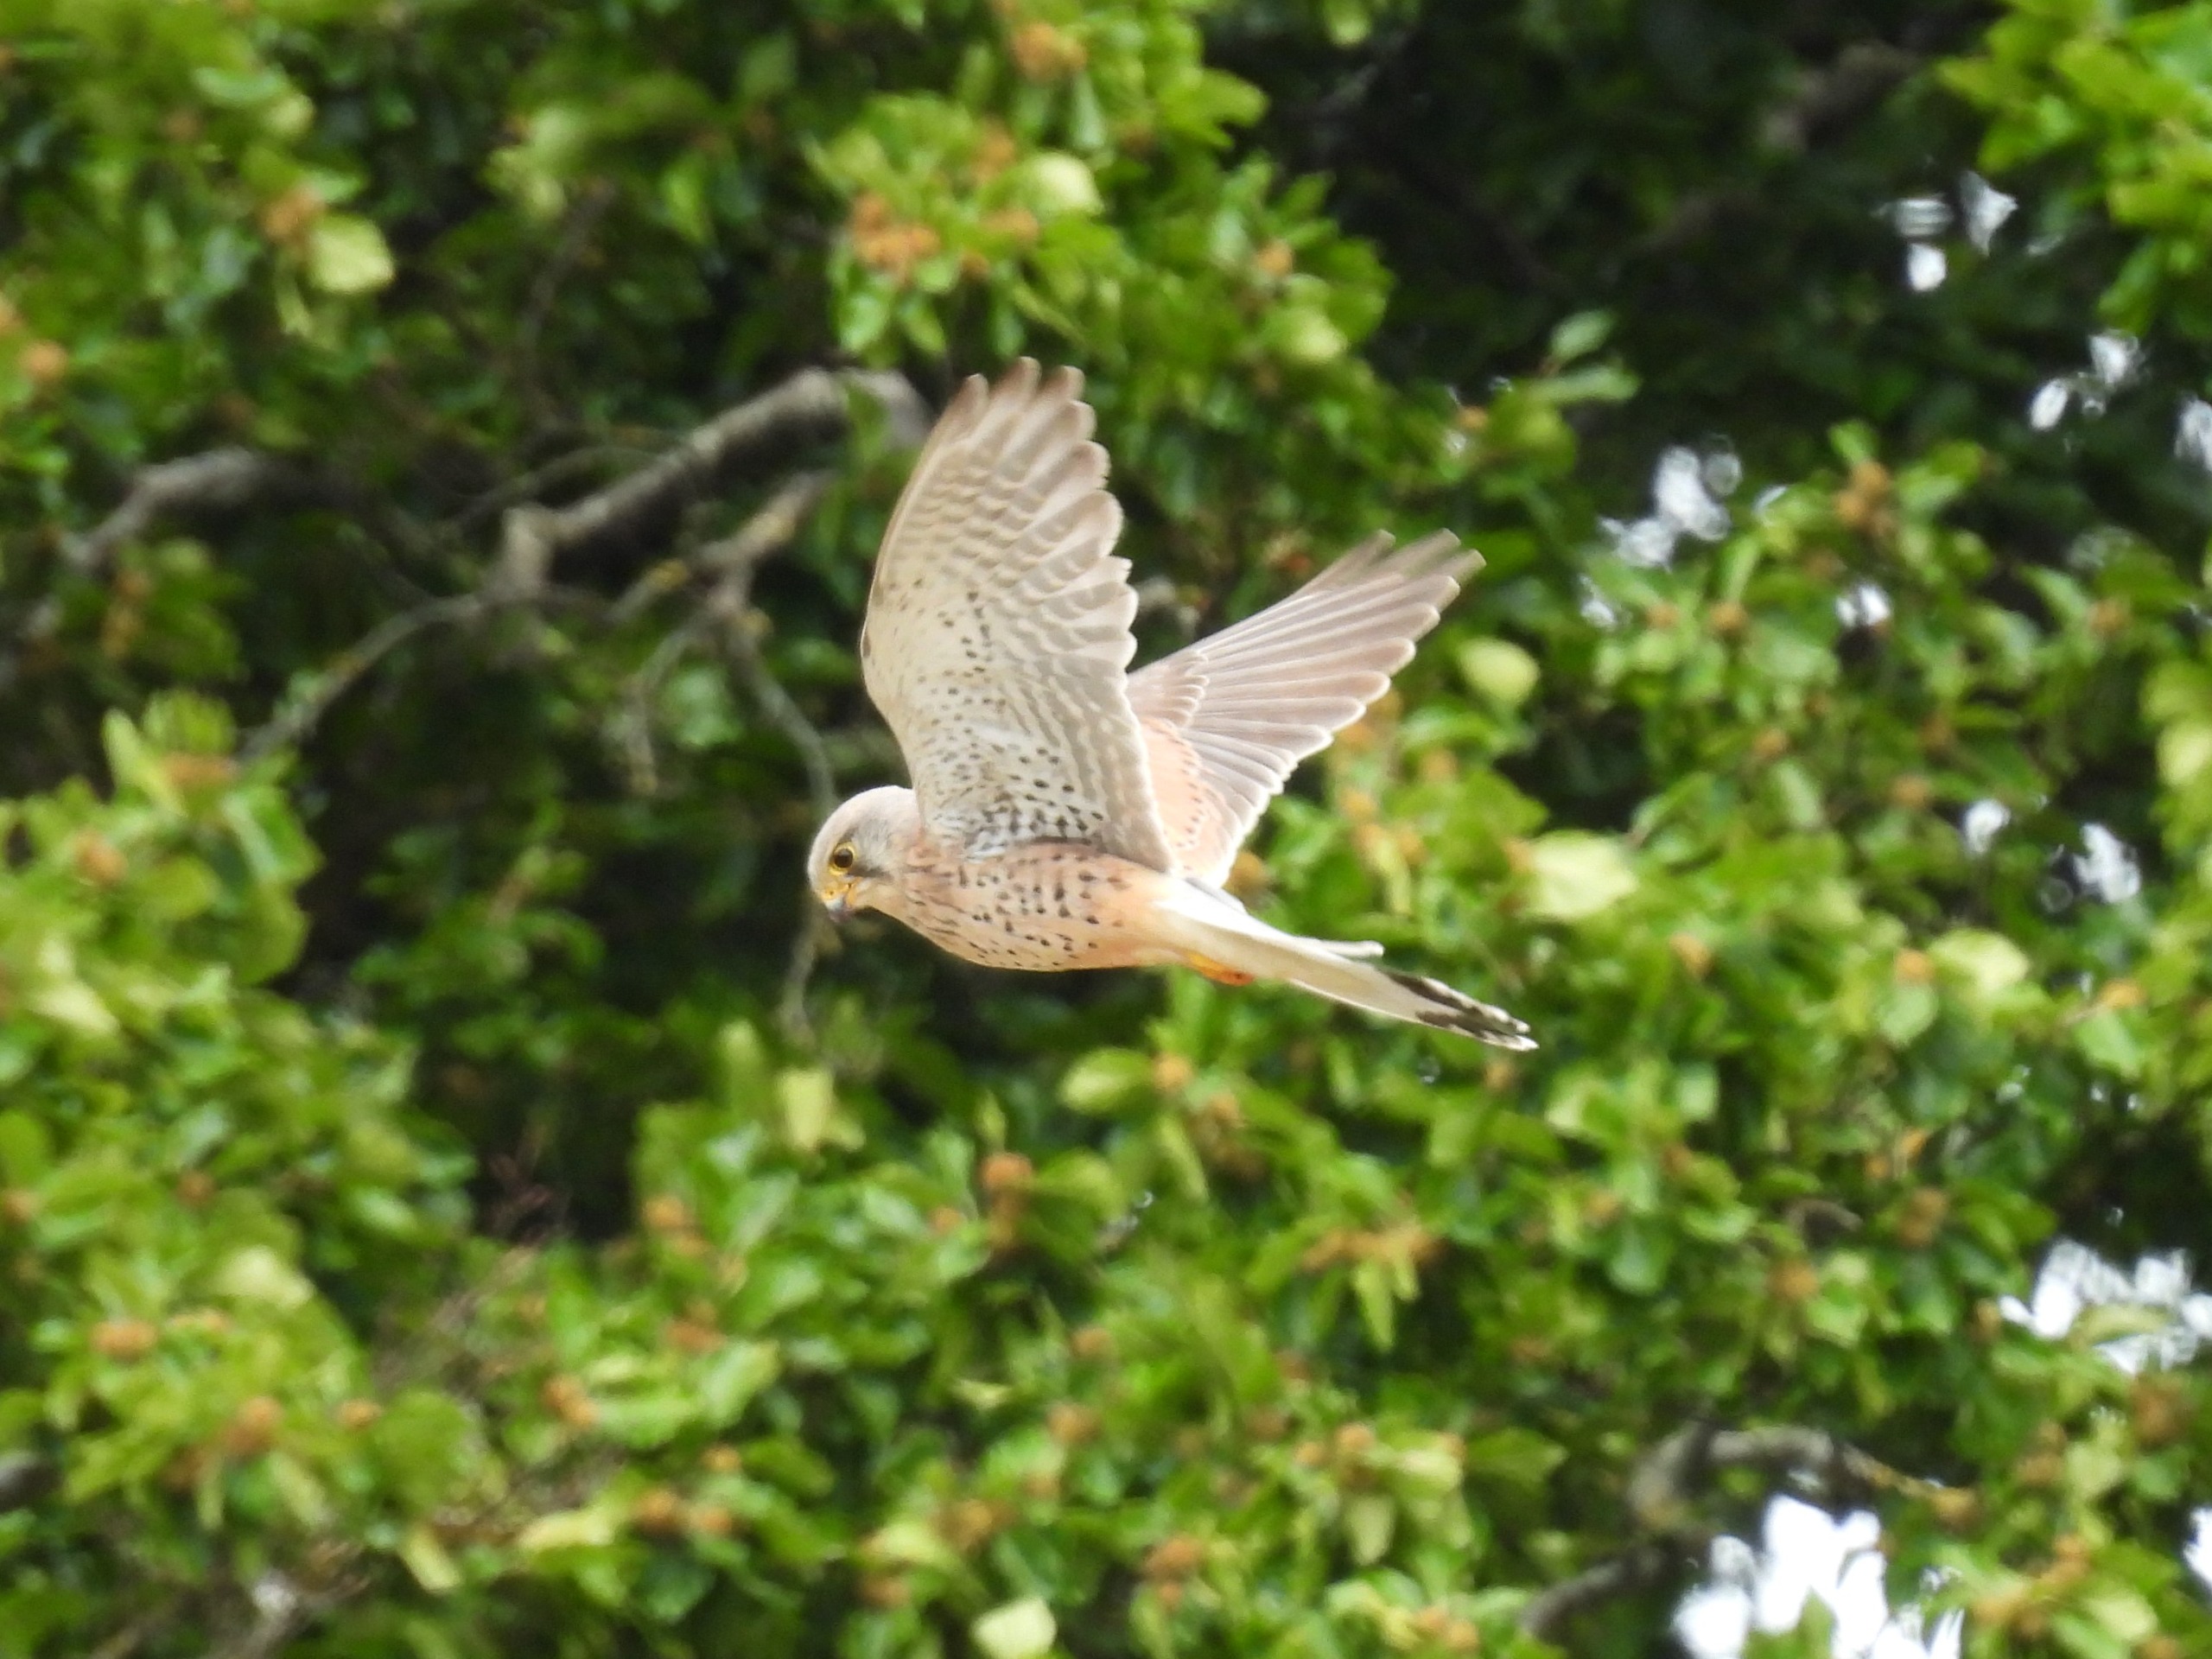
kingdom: Animalia
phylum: Chordata
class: Aves
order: Falconiformes
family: Falconidae
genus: Falco
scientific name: Falco tinnunculus
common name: Tårnfalk
